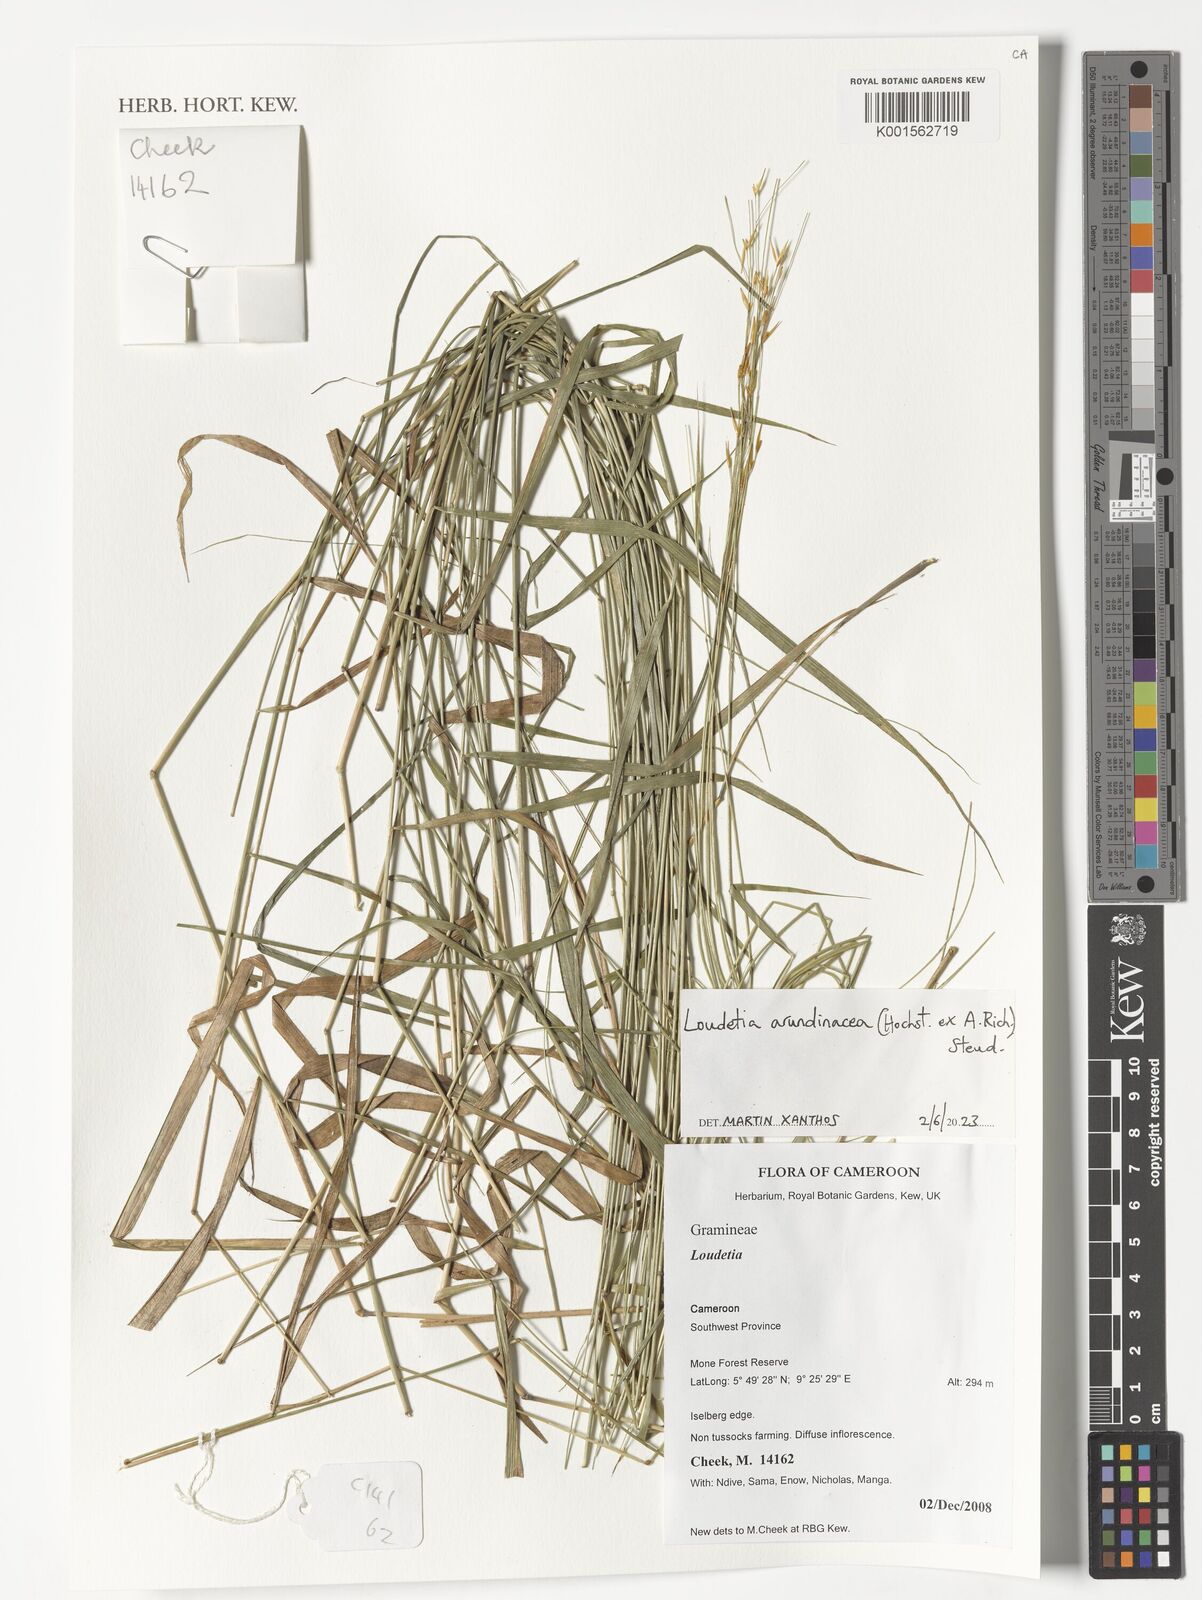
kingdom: Plantae
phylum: Tracheophyta
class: Liliopsida
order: Poales
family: Poaceae
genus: Loudetia
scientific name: Loudetia arundinacea
